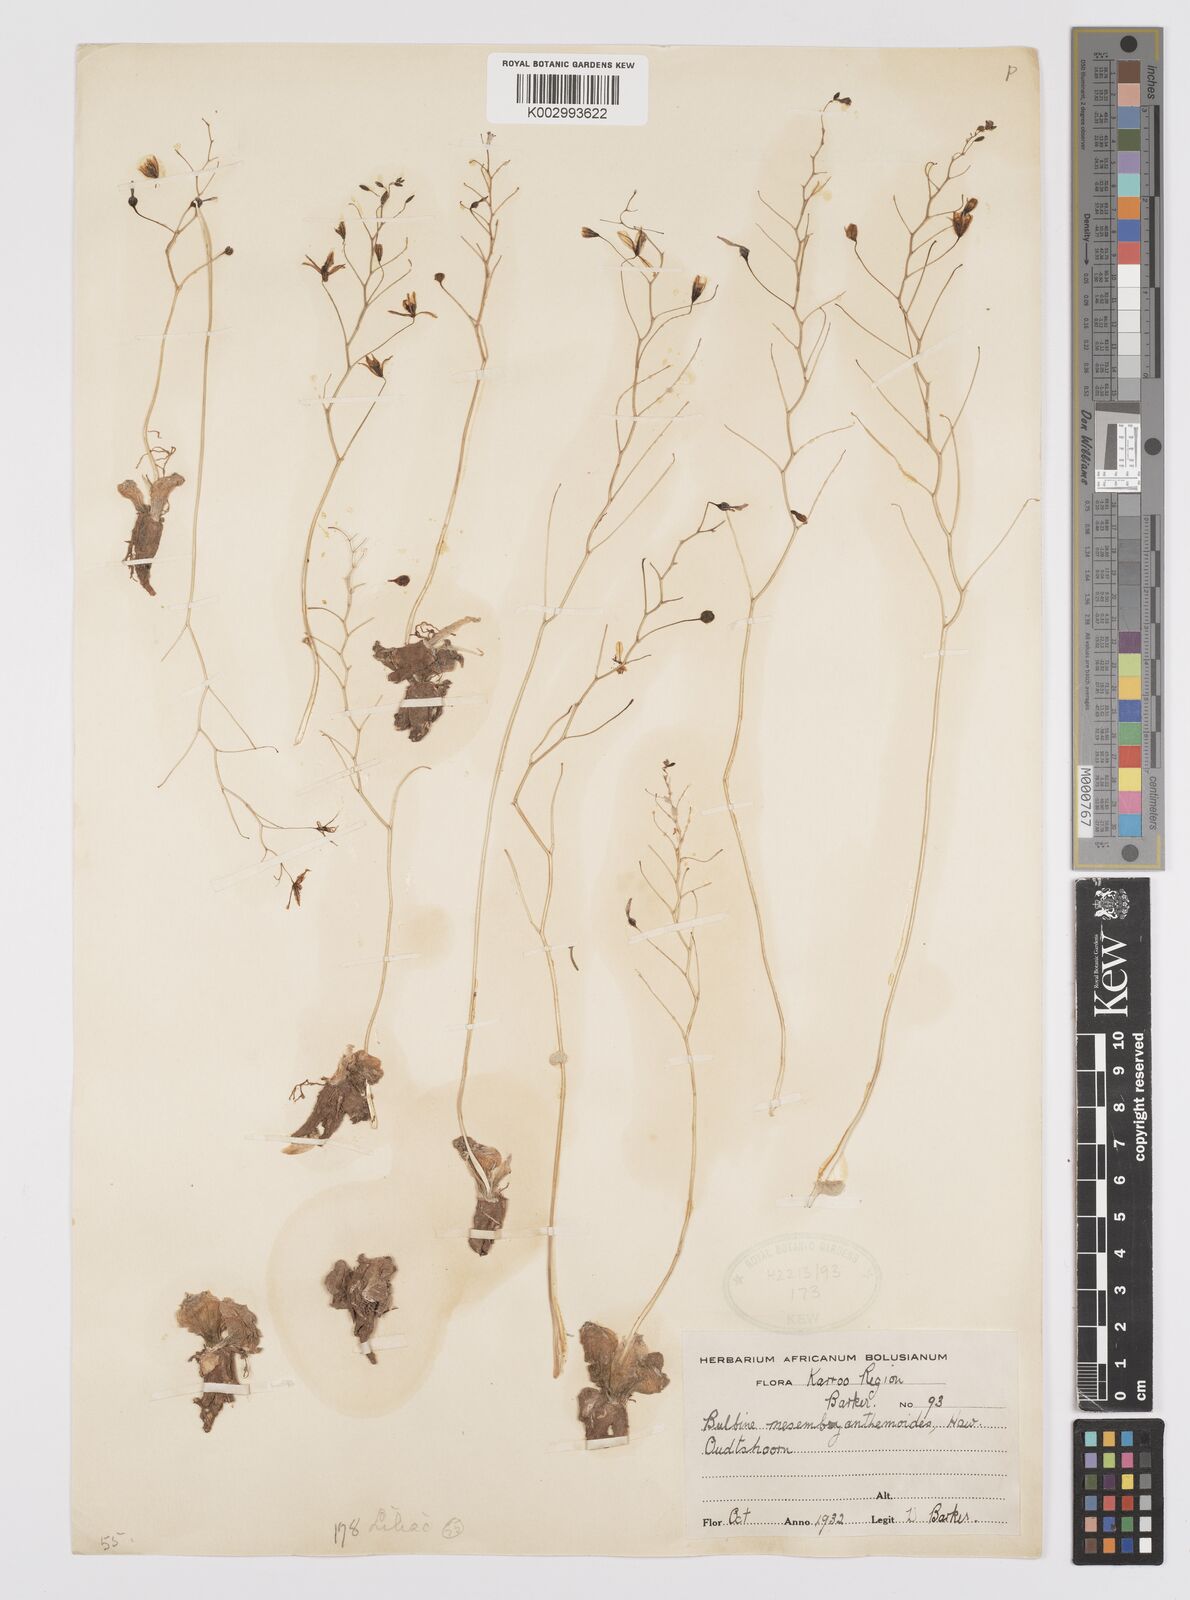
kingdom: Plantae
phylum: Tracheophyta
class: Liliopsida
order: Asparagales
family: Asphodelaceae
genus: Bulbine
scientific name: Bulbine mesembryanthemoides
